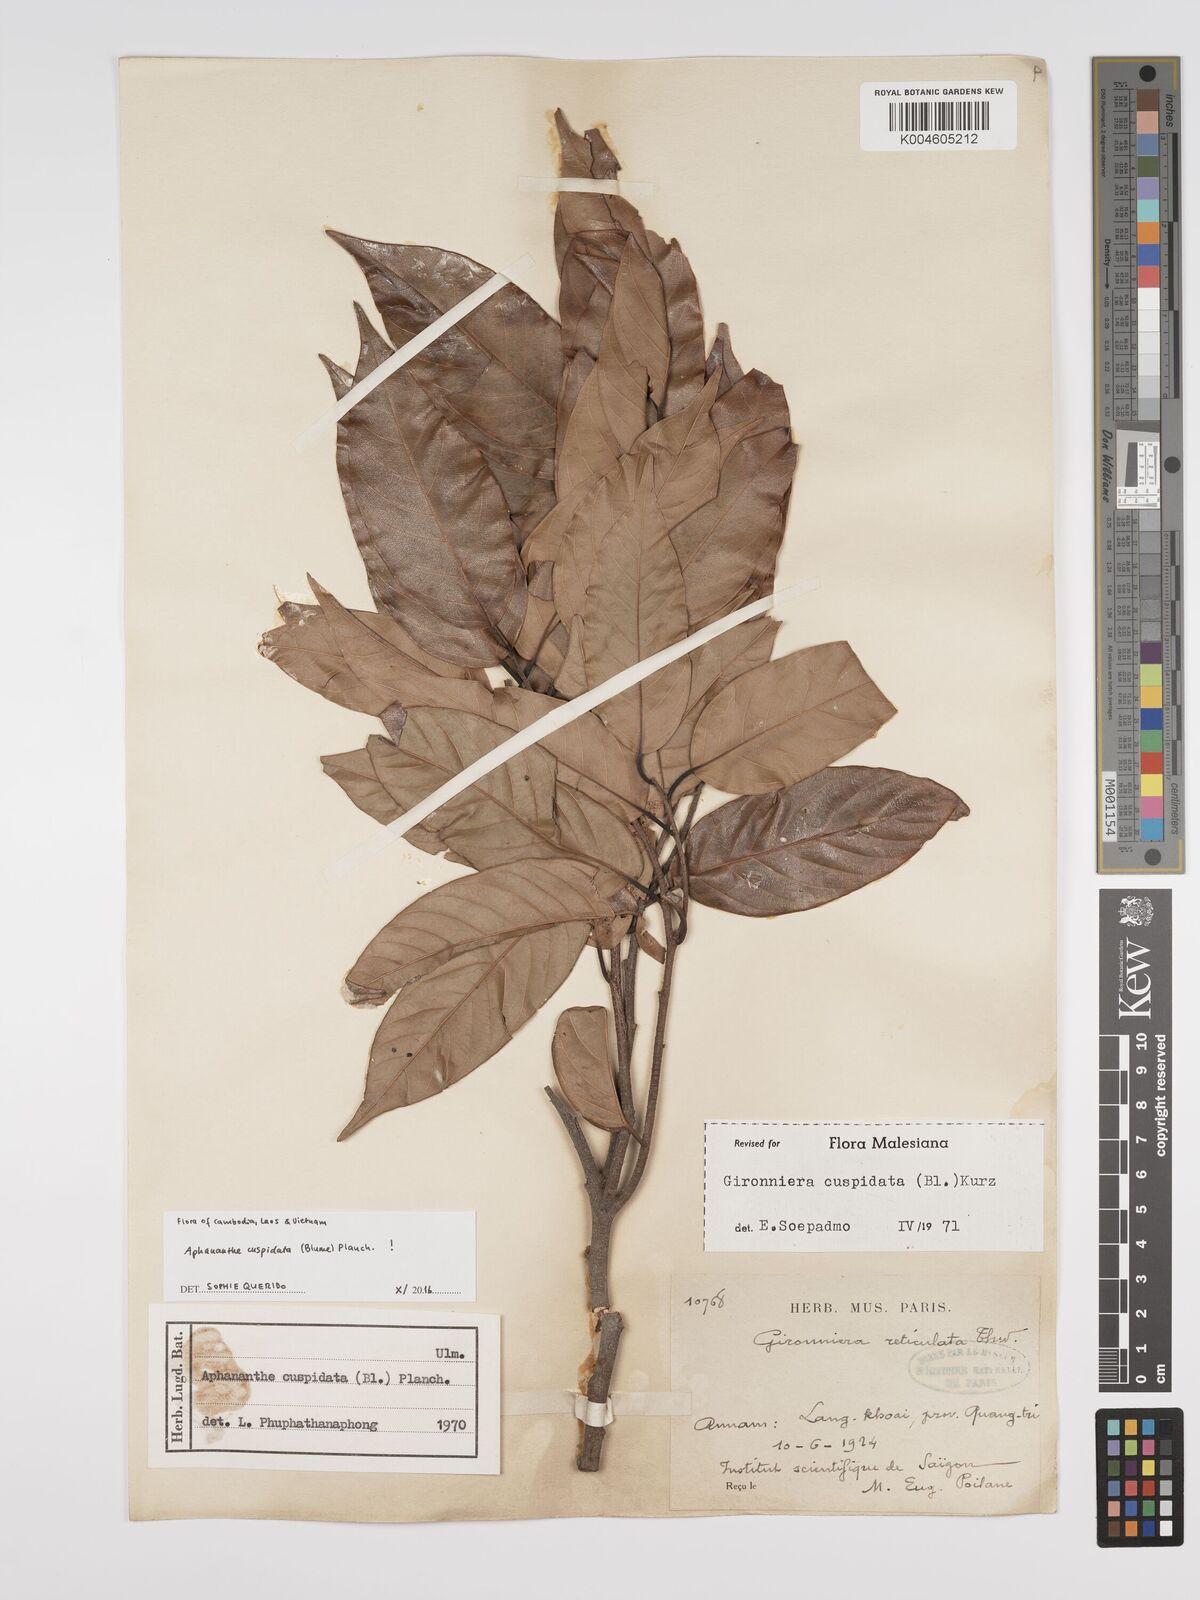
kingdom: Plantae
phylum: Tracheophyta
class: Magnoliopsida
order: Rosales
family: Cannabaceae
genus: Aphananthe
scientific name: Aphananthe cuspidata
